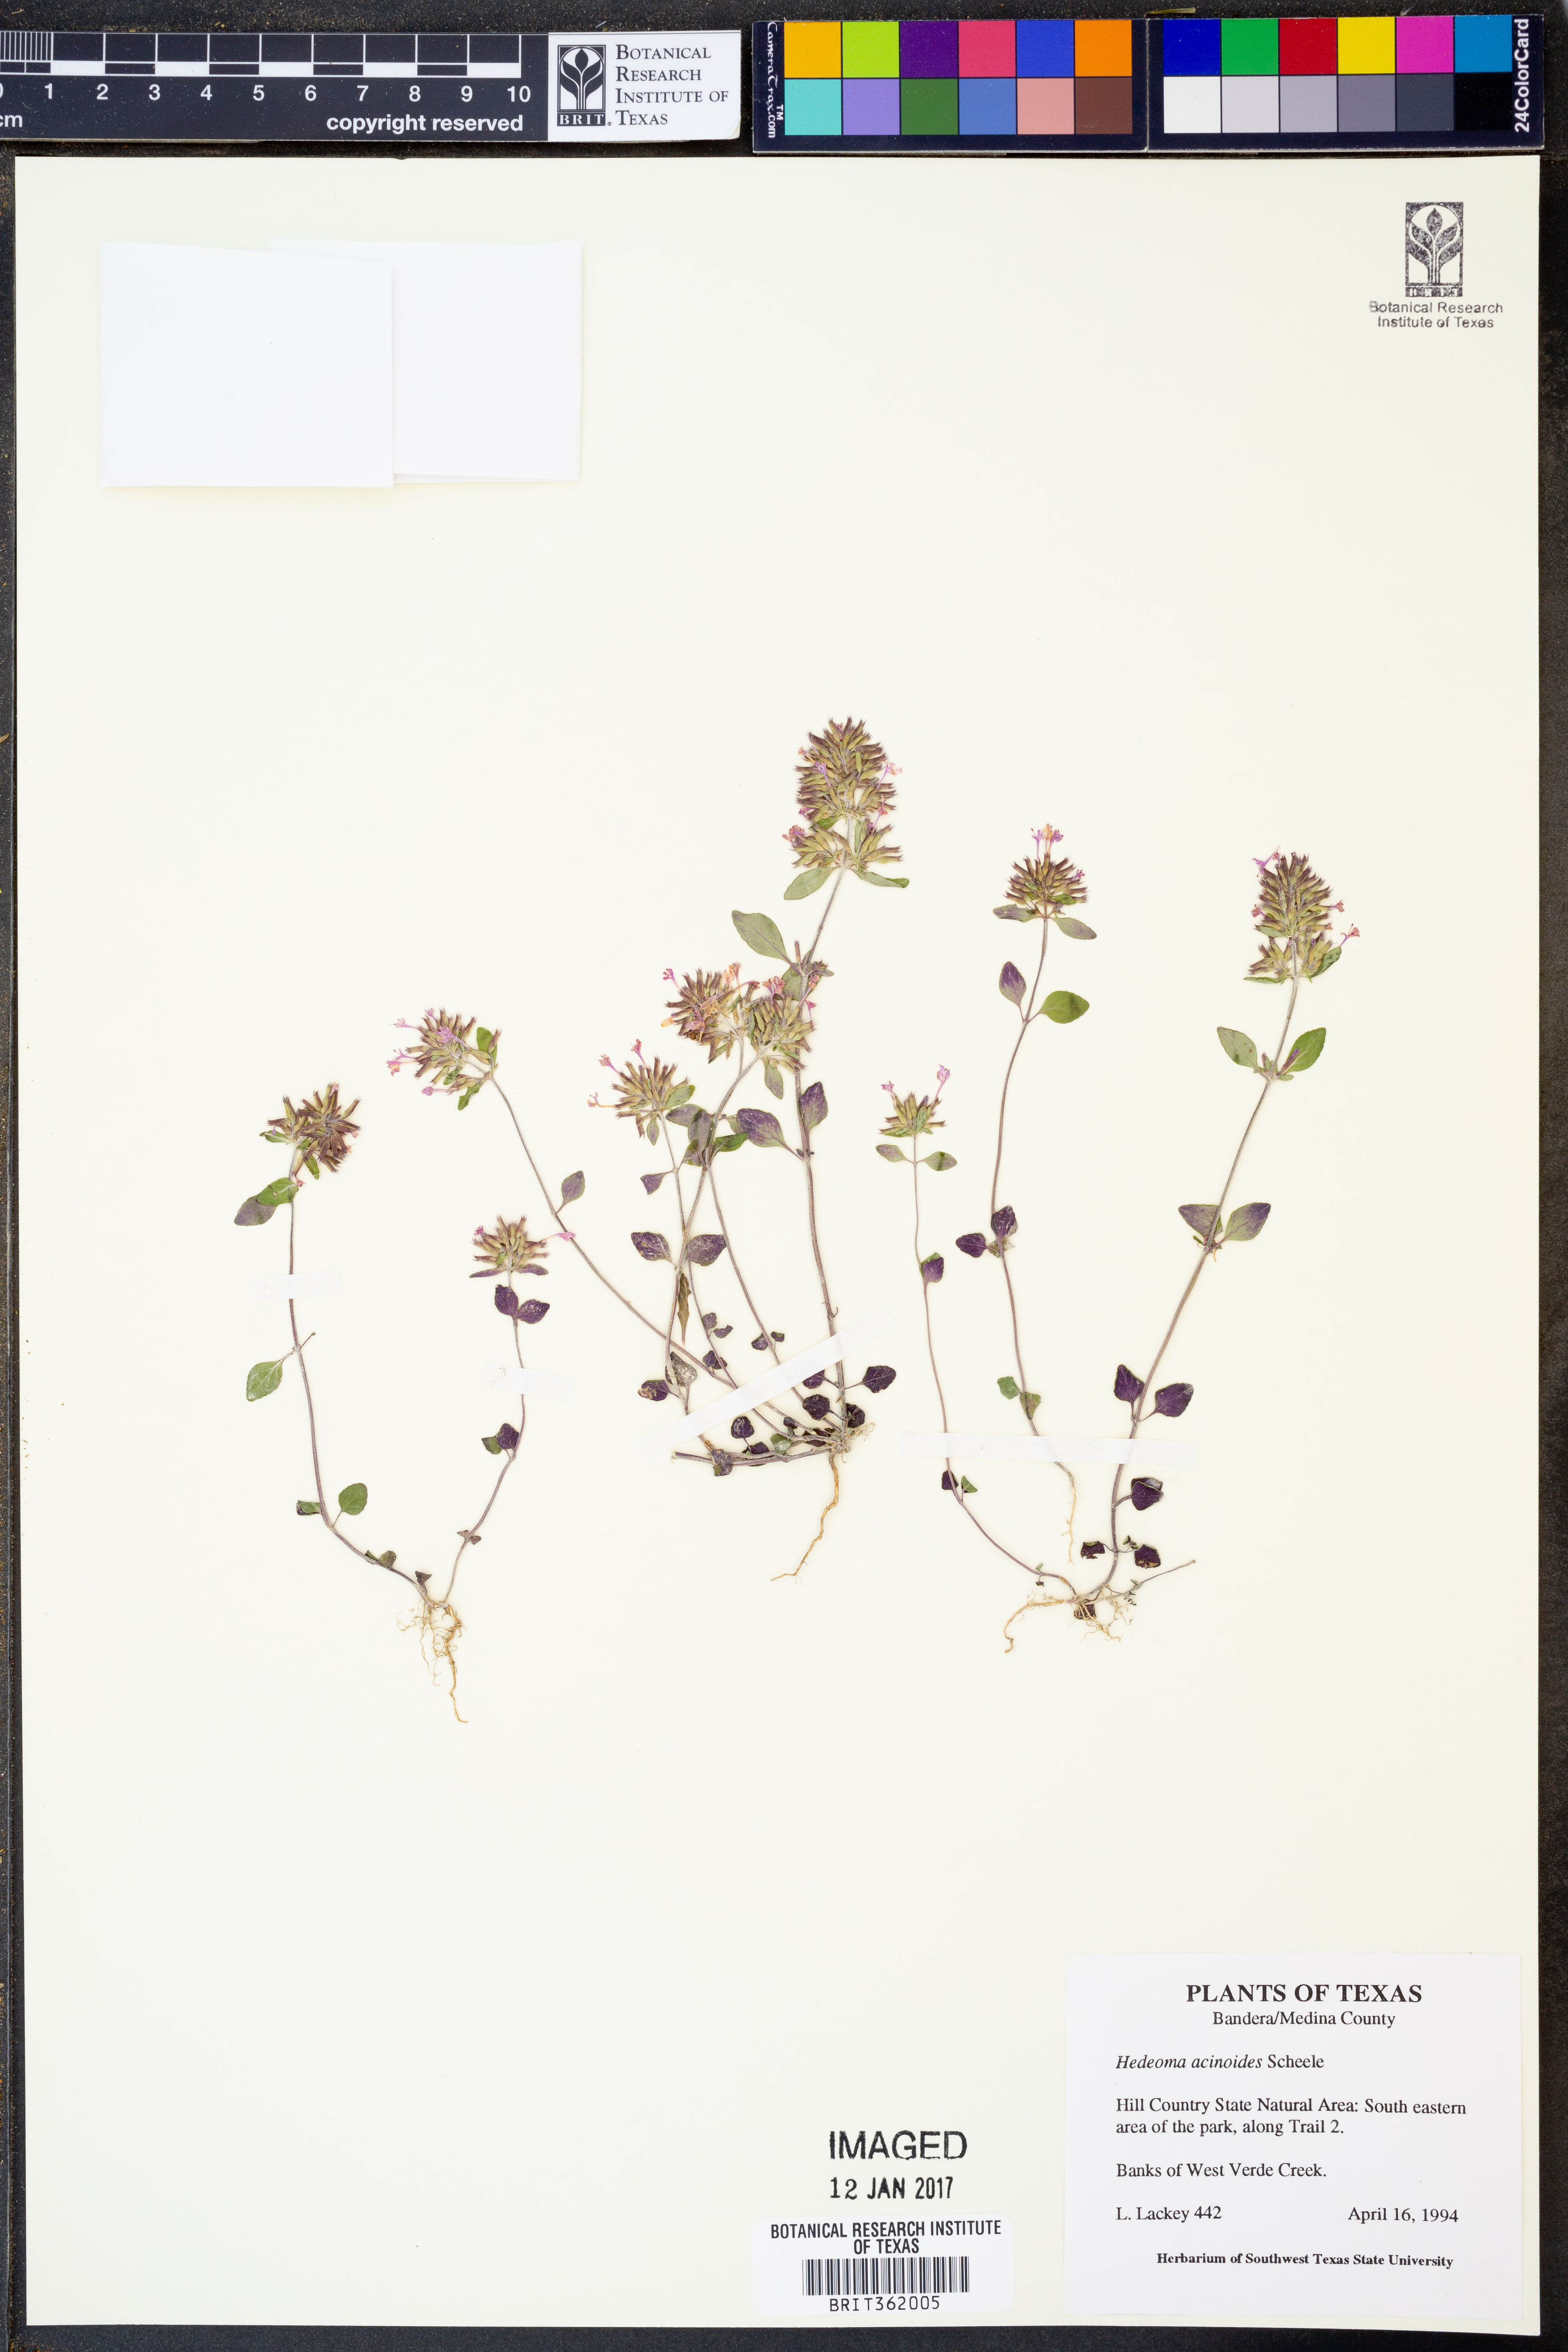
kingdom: Plantae
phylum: Tracheophyta
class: Magnoliopsida
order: Lamiales
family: Lamiaceae
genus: Hedeoma
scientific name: Hedeoma acinoides
